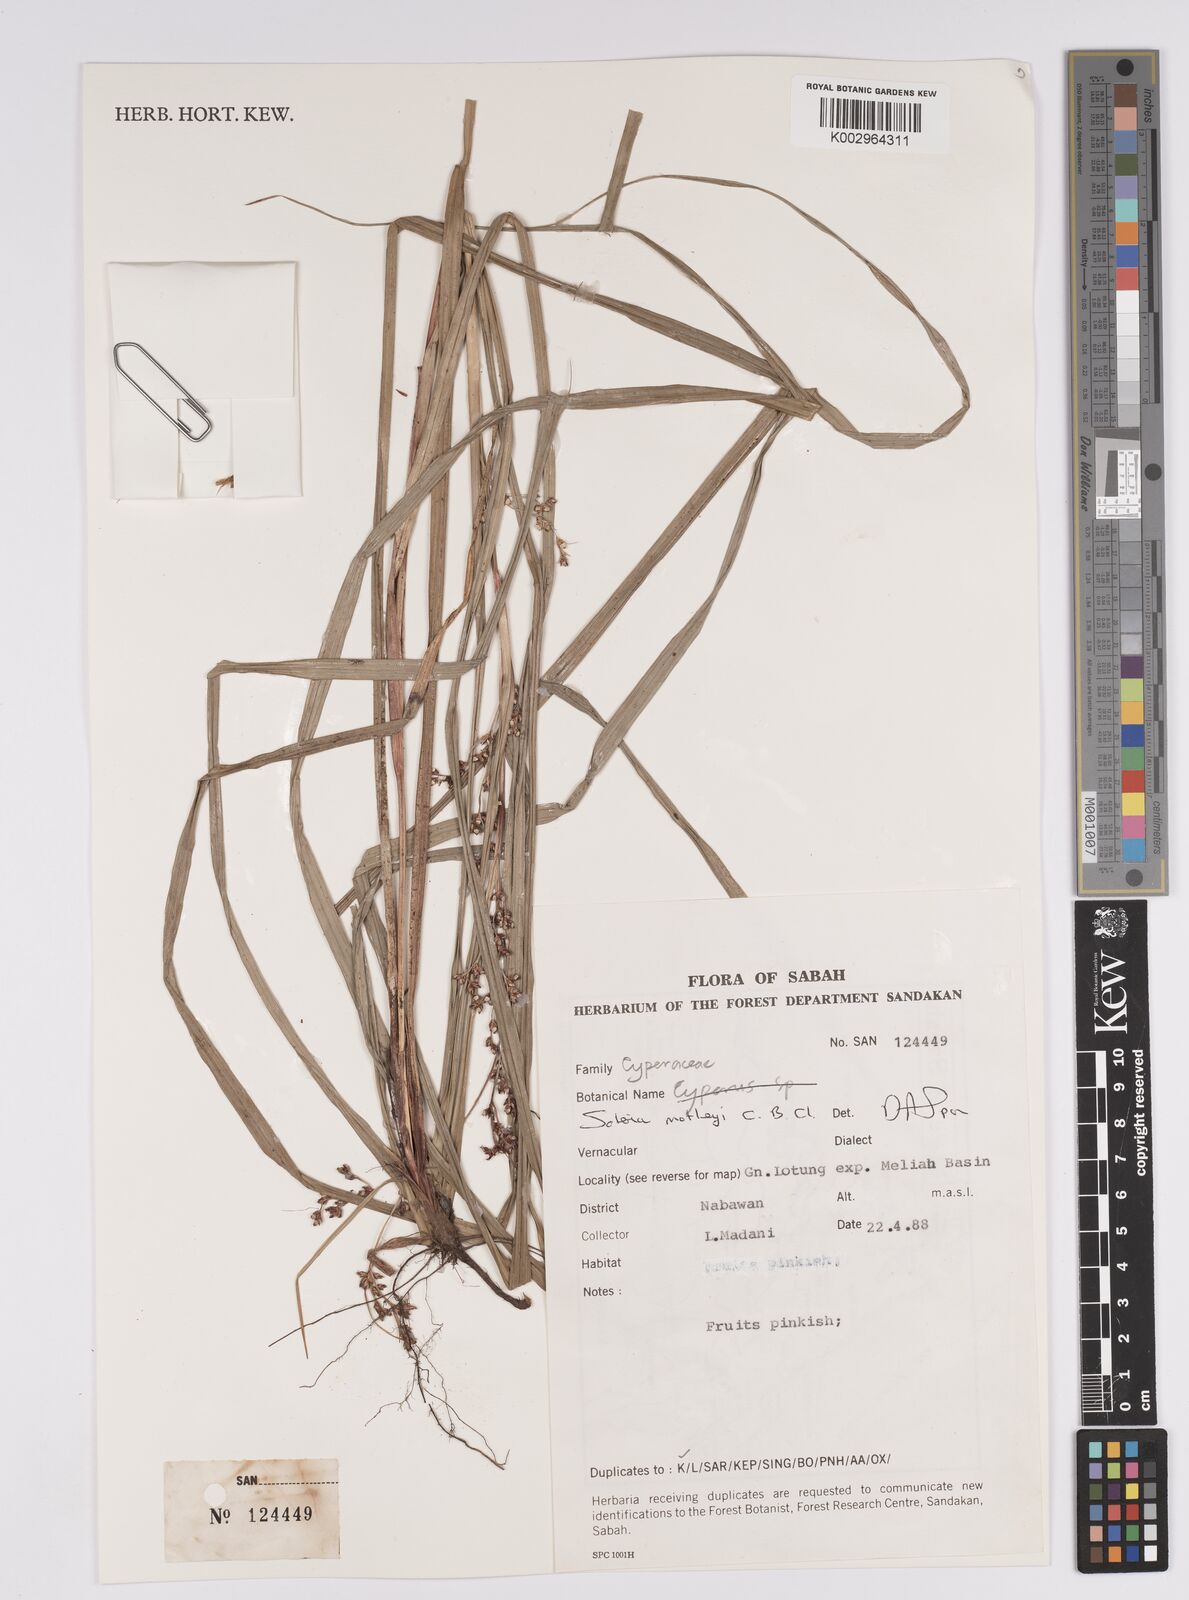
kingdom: Plantae
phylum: Tracheophyta
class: Liliopsida
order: Poales
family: Cyperaceae
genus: Scleria
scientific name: Scleria motleyi
